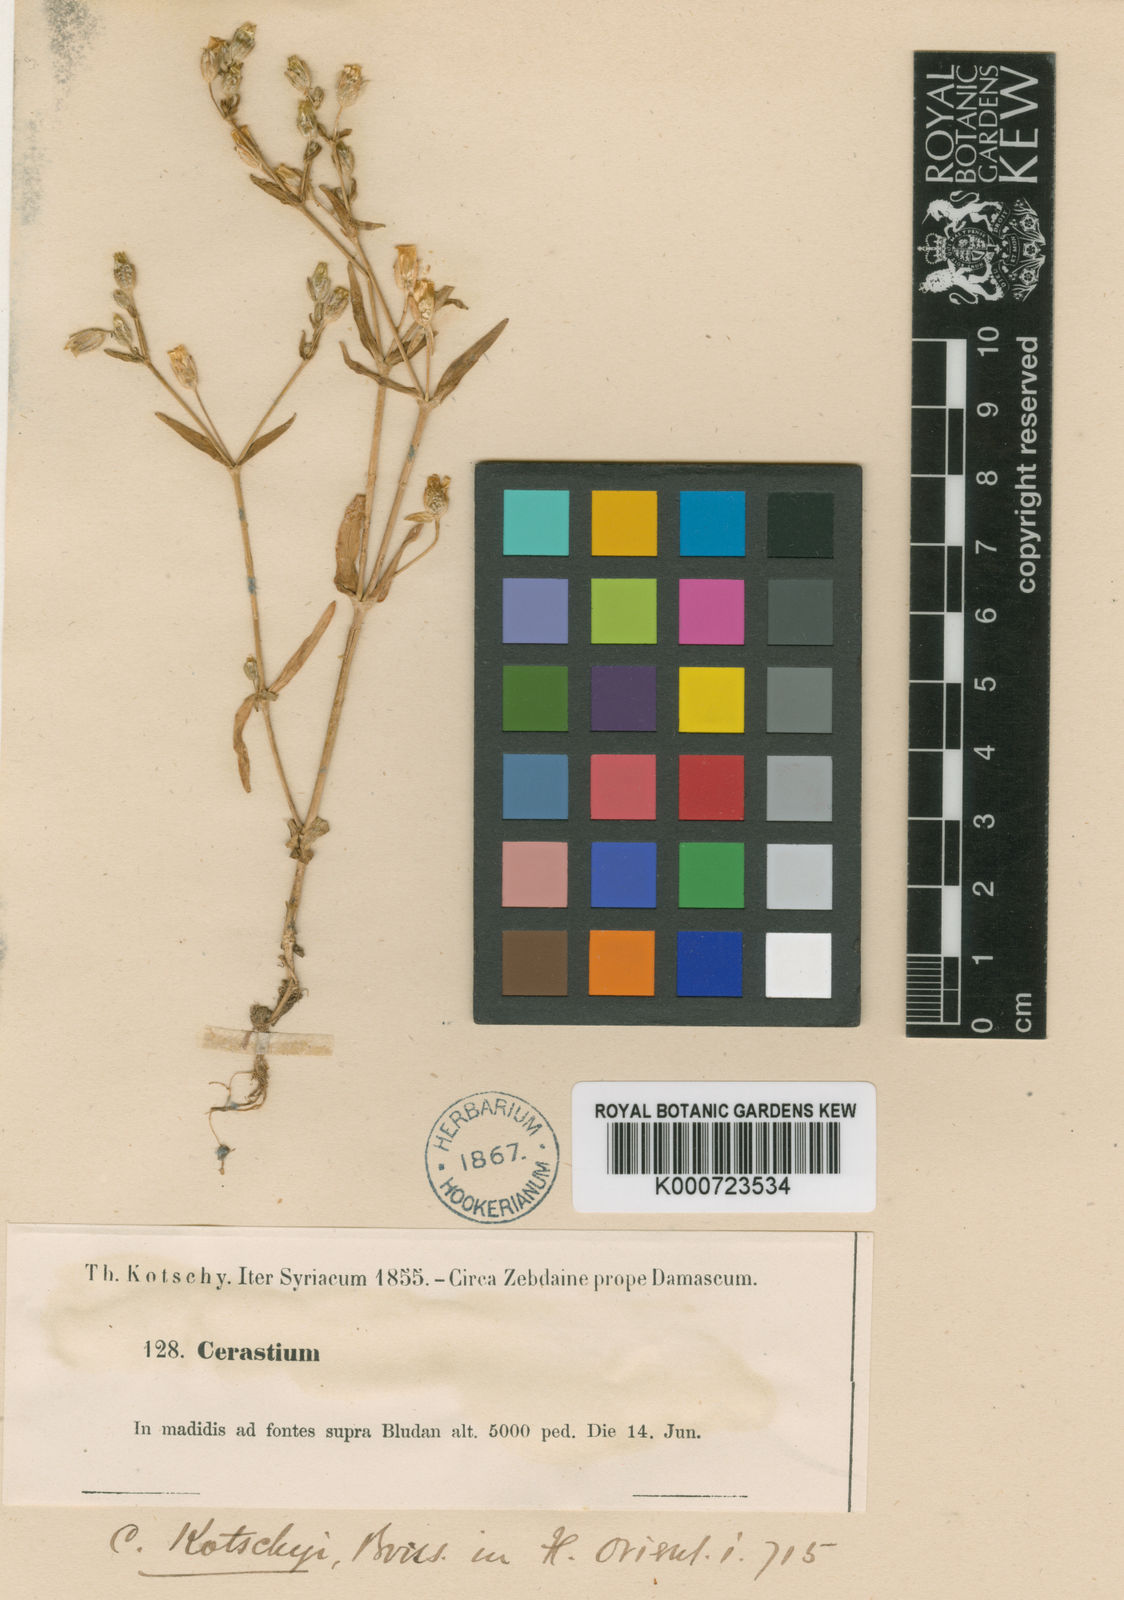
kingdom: Plantae
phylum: Tracheophyta
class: Magnoliopsida
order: Caryophyllales
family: Caryophyllaceae
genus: Cerastium
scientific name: Cerastium alsinifolium
